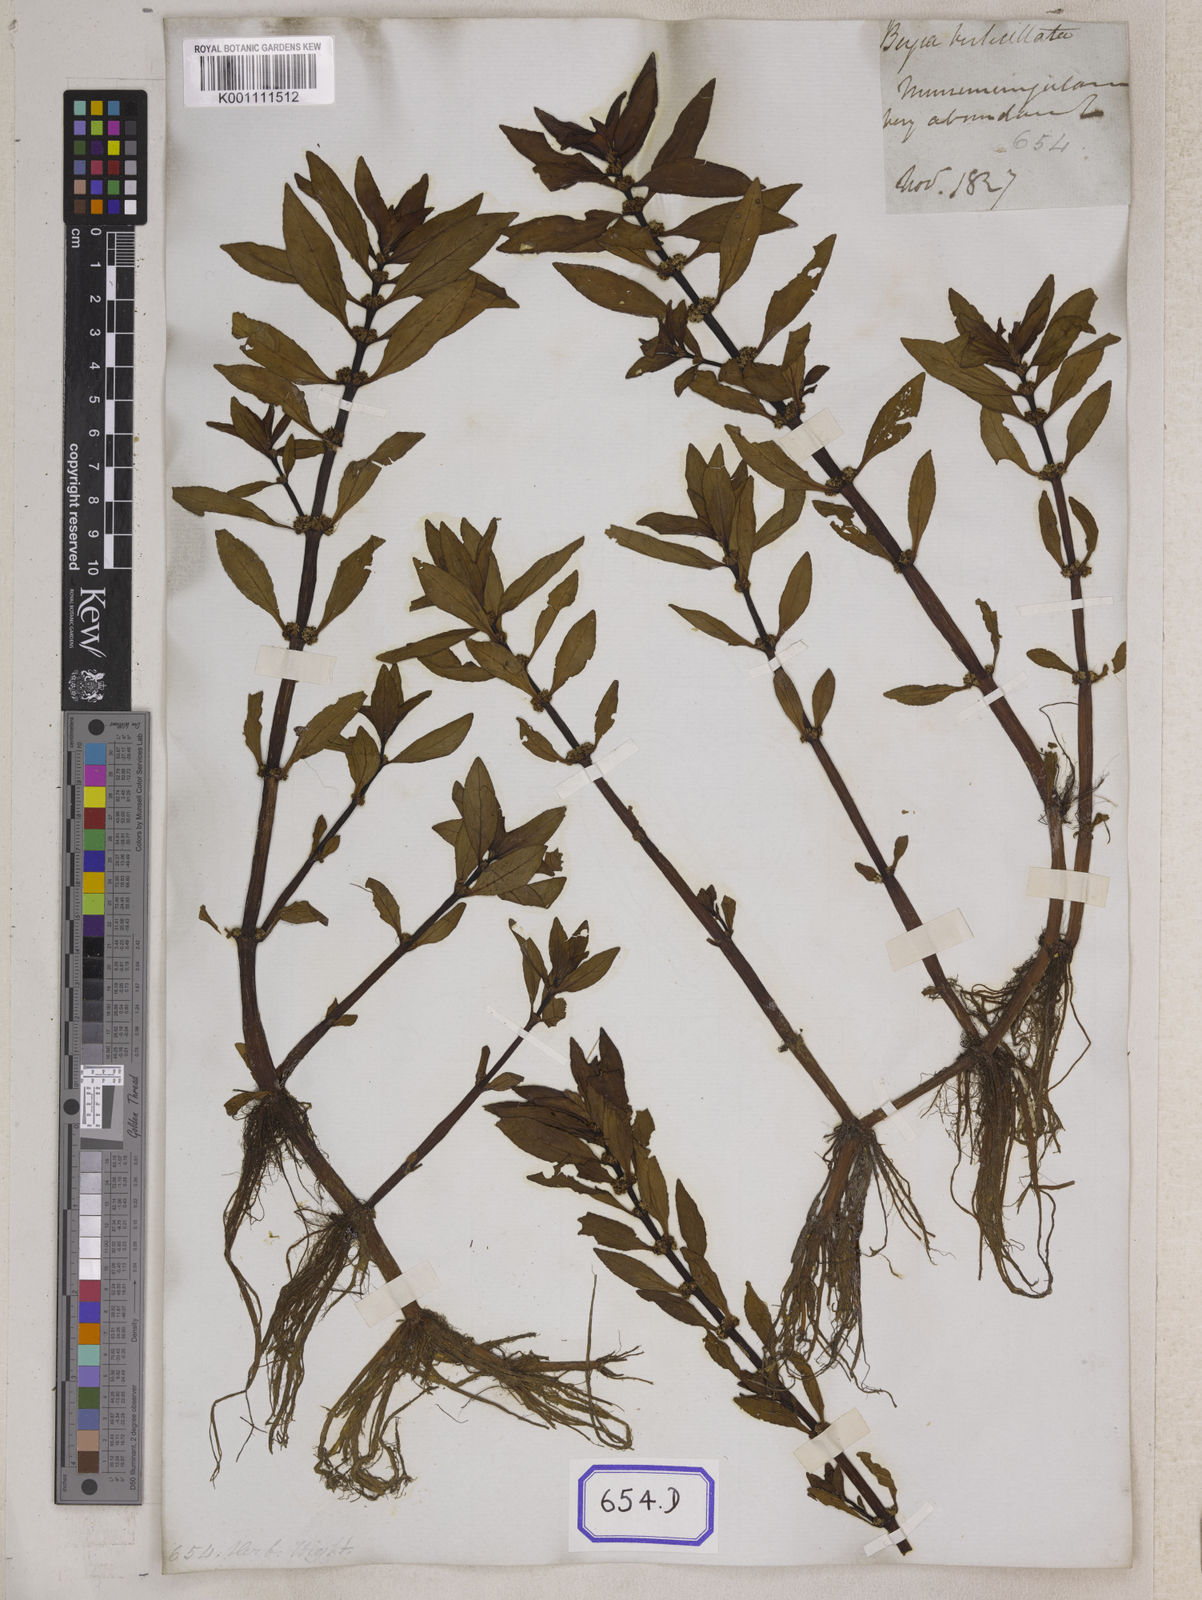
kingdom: Plantae
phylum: Tracheophyta
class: Magnoliopsida
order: Malpighiales
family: Elatinaceae
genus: Bergia
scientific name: Bergia
